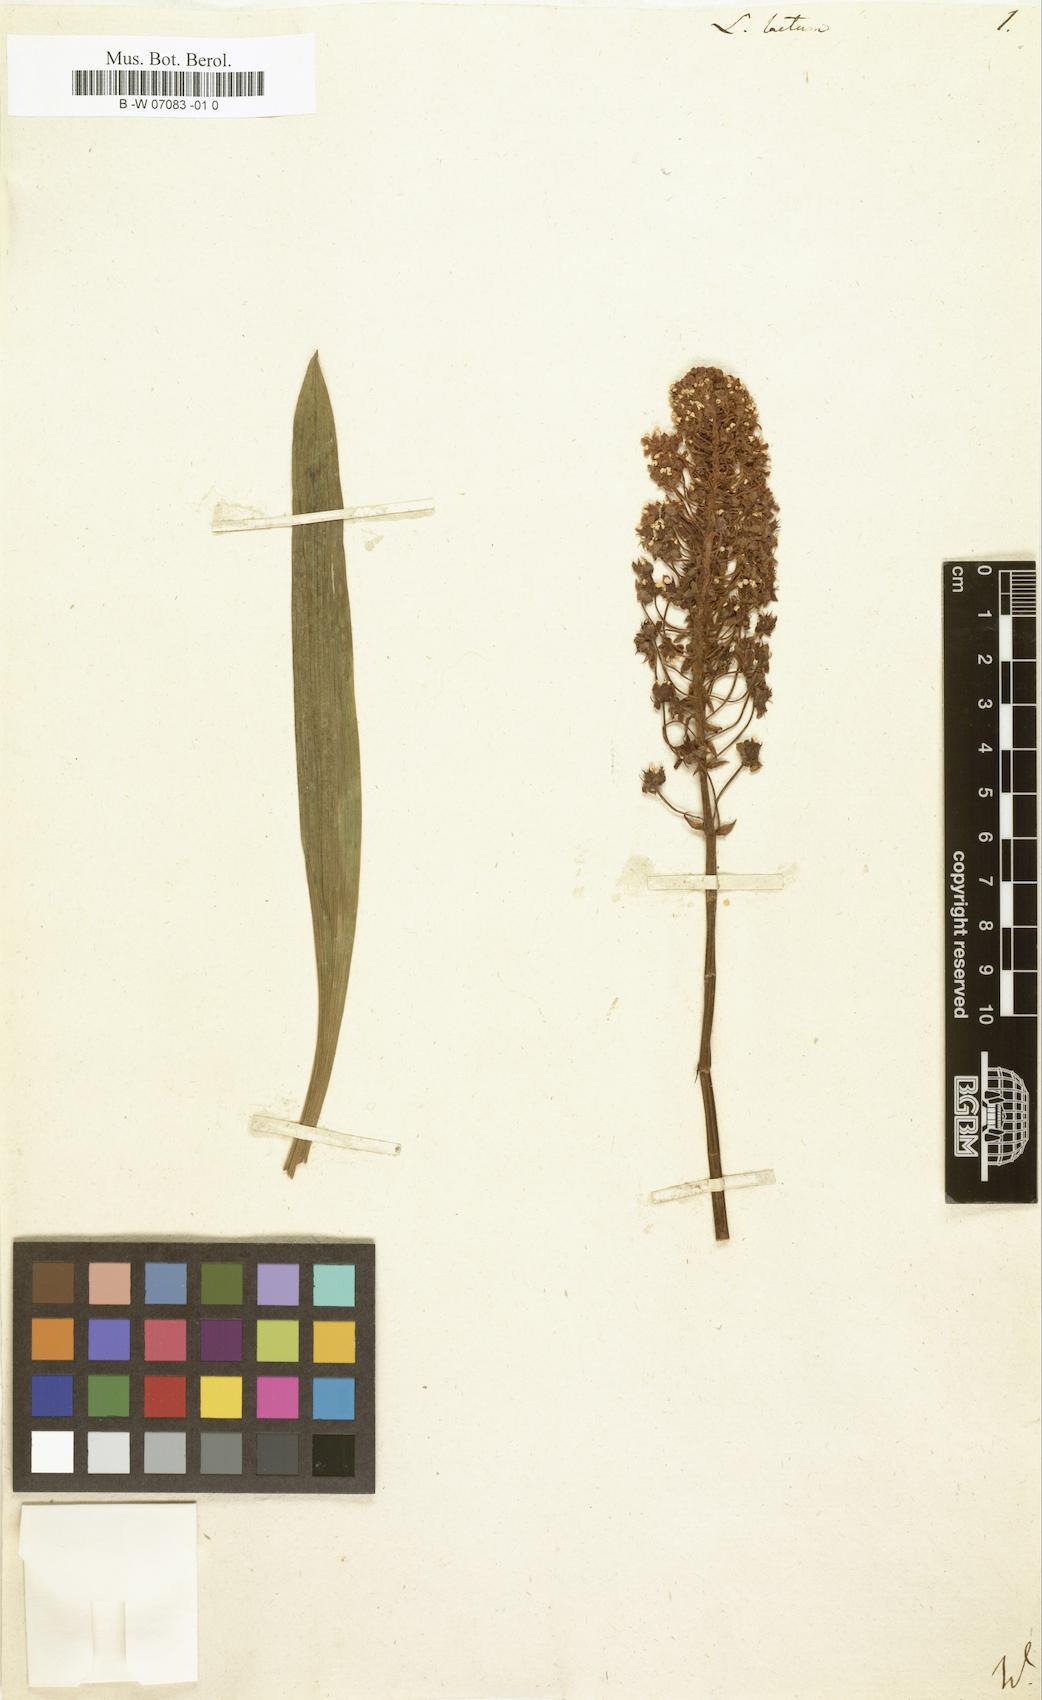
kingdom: Plantae
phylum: Tracheophyta
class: Liliopsida
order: Liliales
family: Melanthiaceae
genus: Amianthium
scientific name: Amianthium muscitoxicum
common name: Fly-poison
